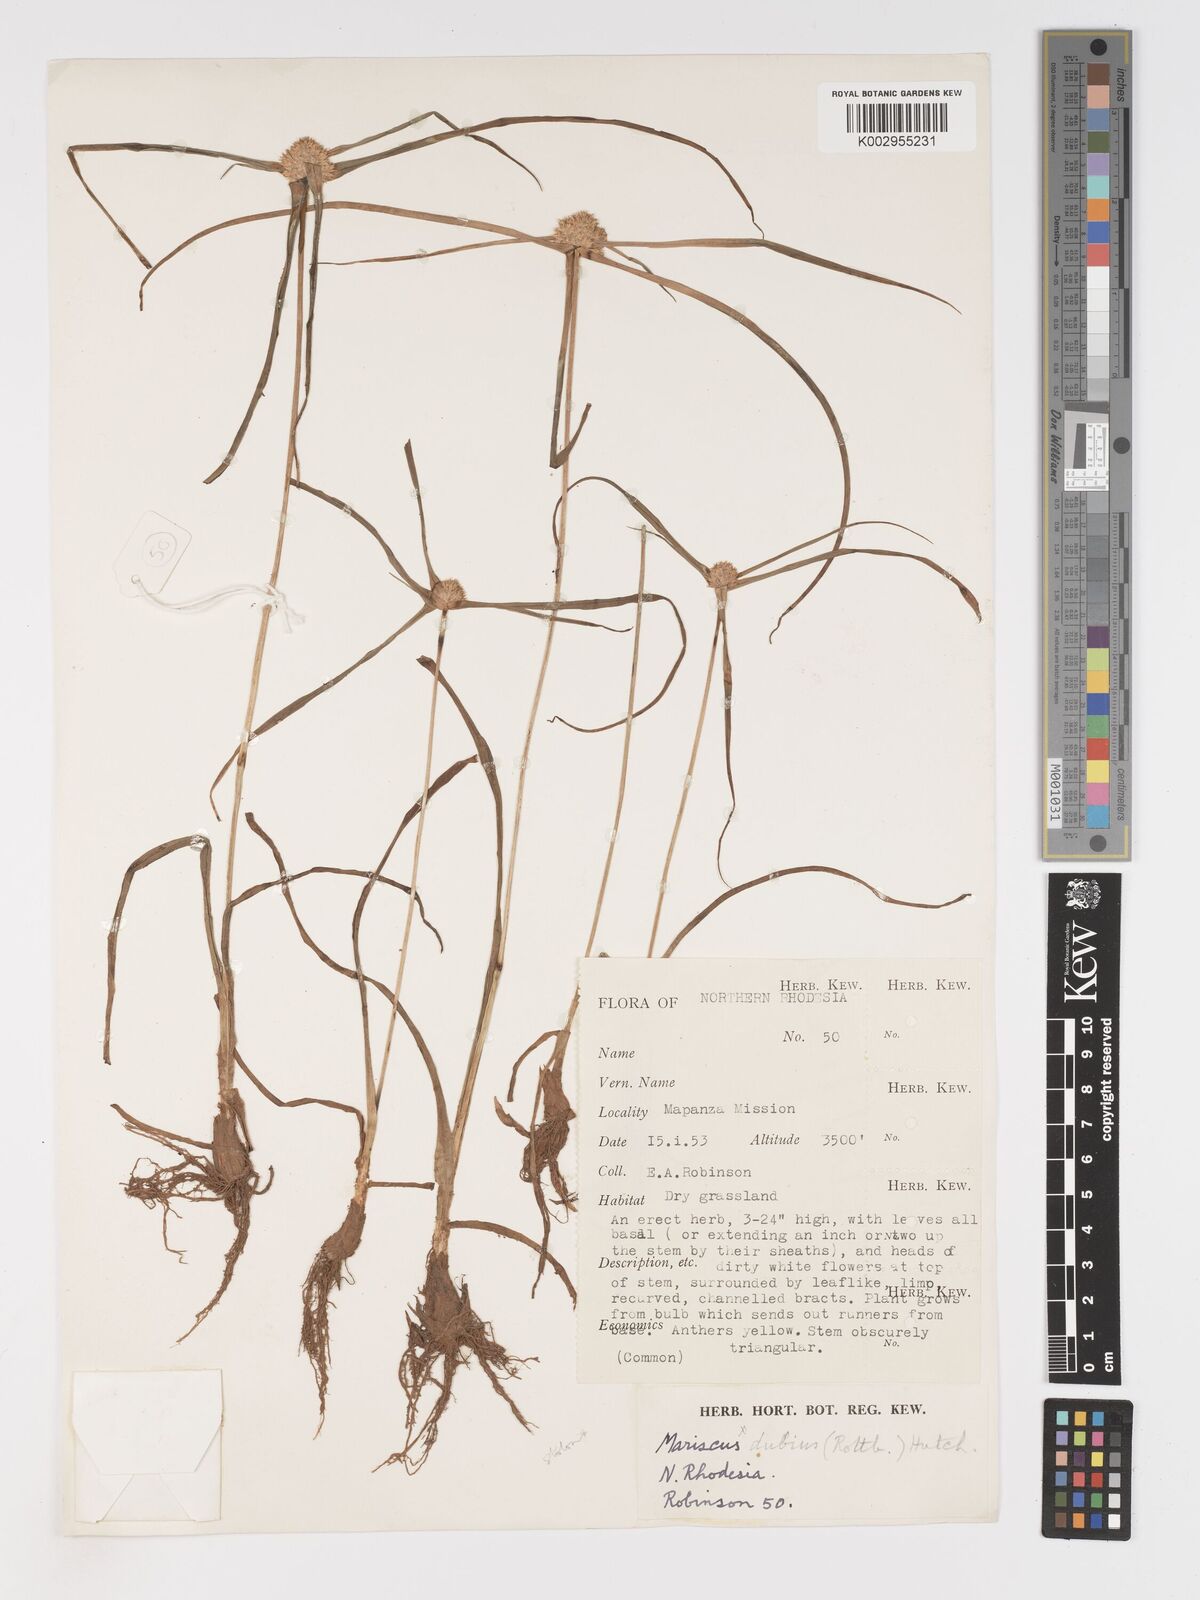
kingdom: Plantae
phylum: Tracheophyta
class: Liliopsida
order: Poales
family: Cyperaceae
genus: Cyperus
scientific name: Cyperus
